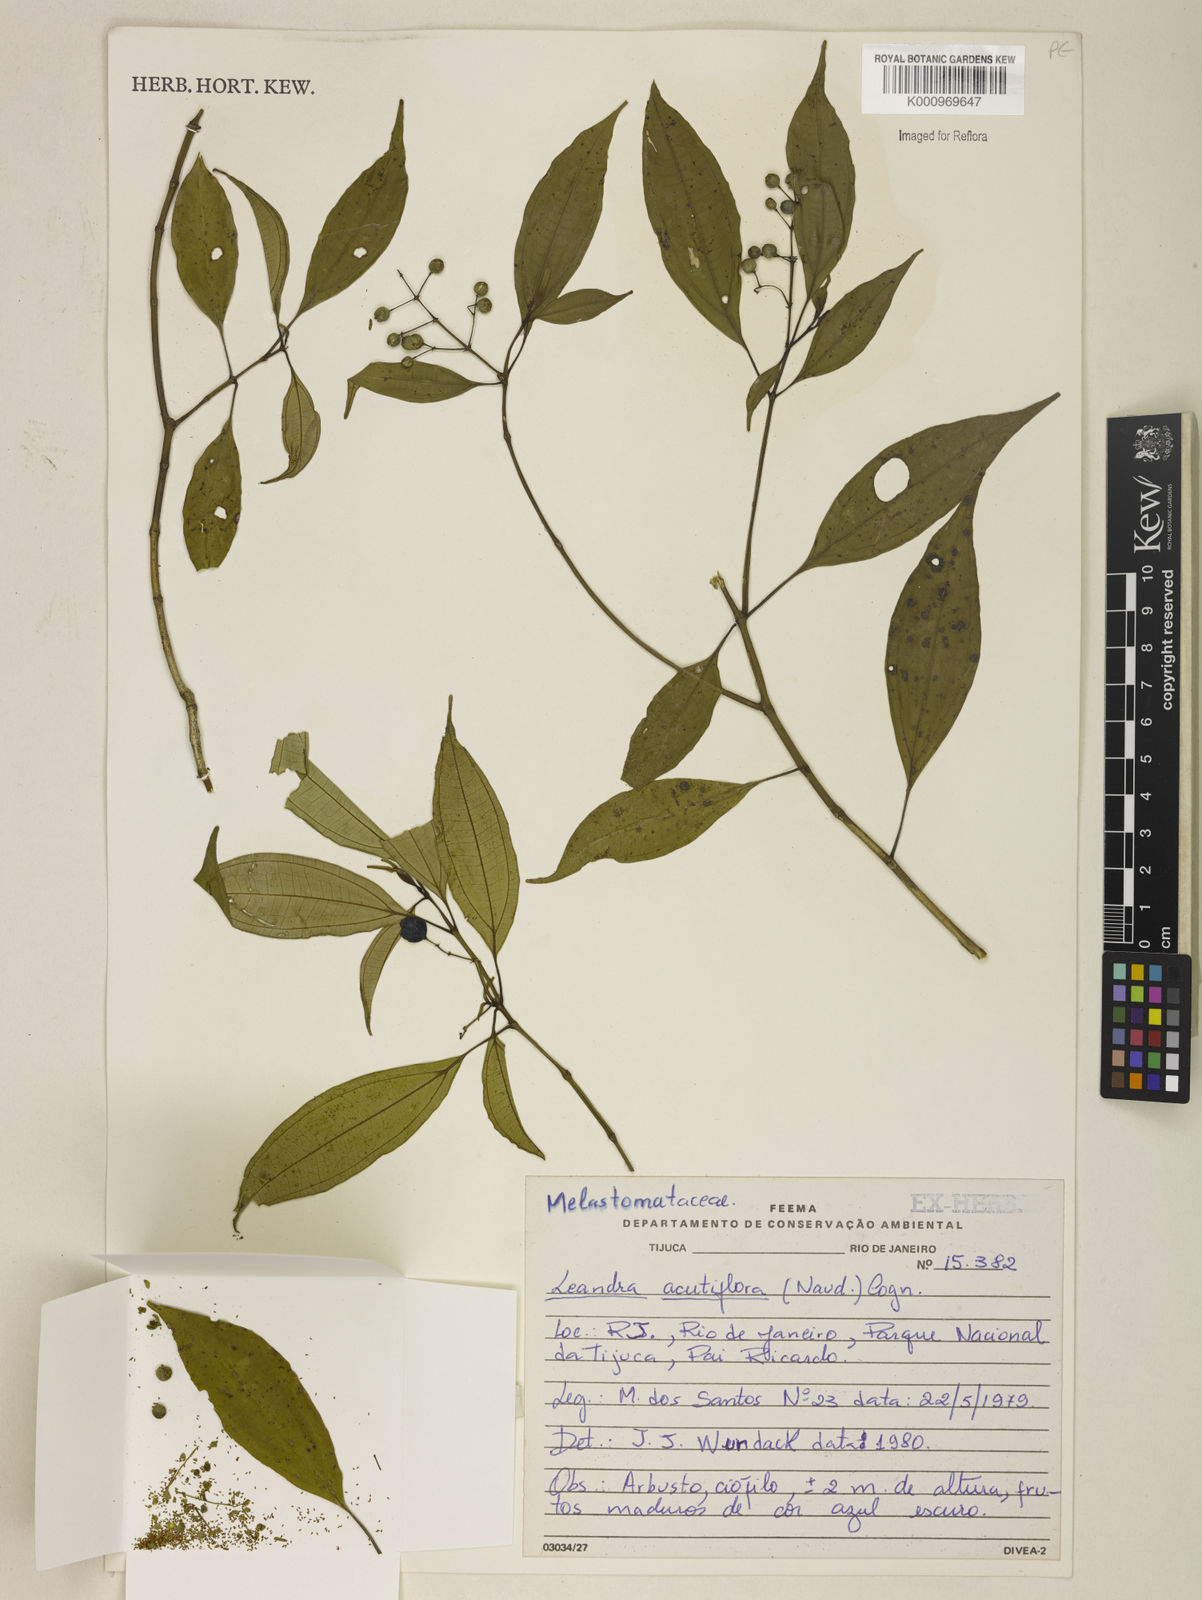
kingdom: Plantae
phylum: Tracheophyta
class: Magnoliopsida
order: Myrtales
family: Melastomataceae
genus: Miconia
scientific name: Miconia acutiflora
